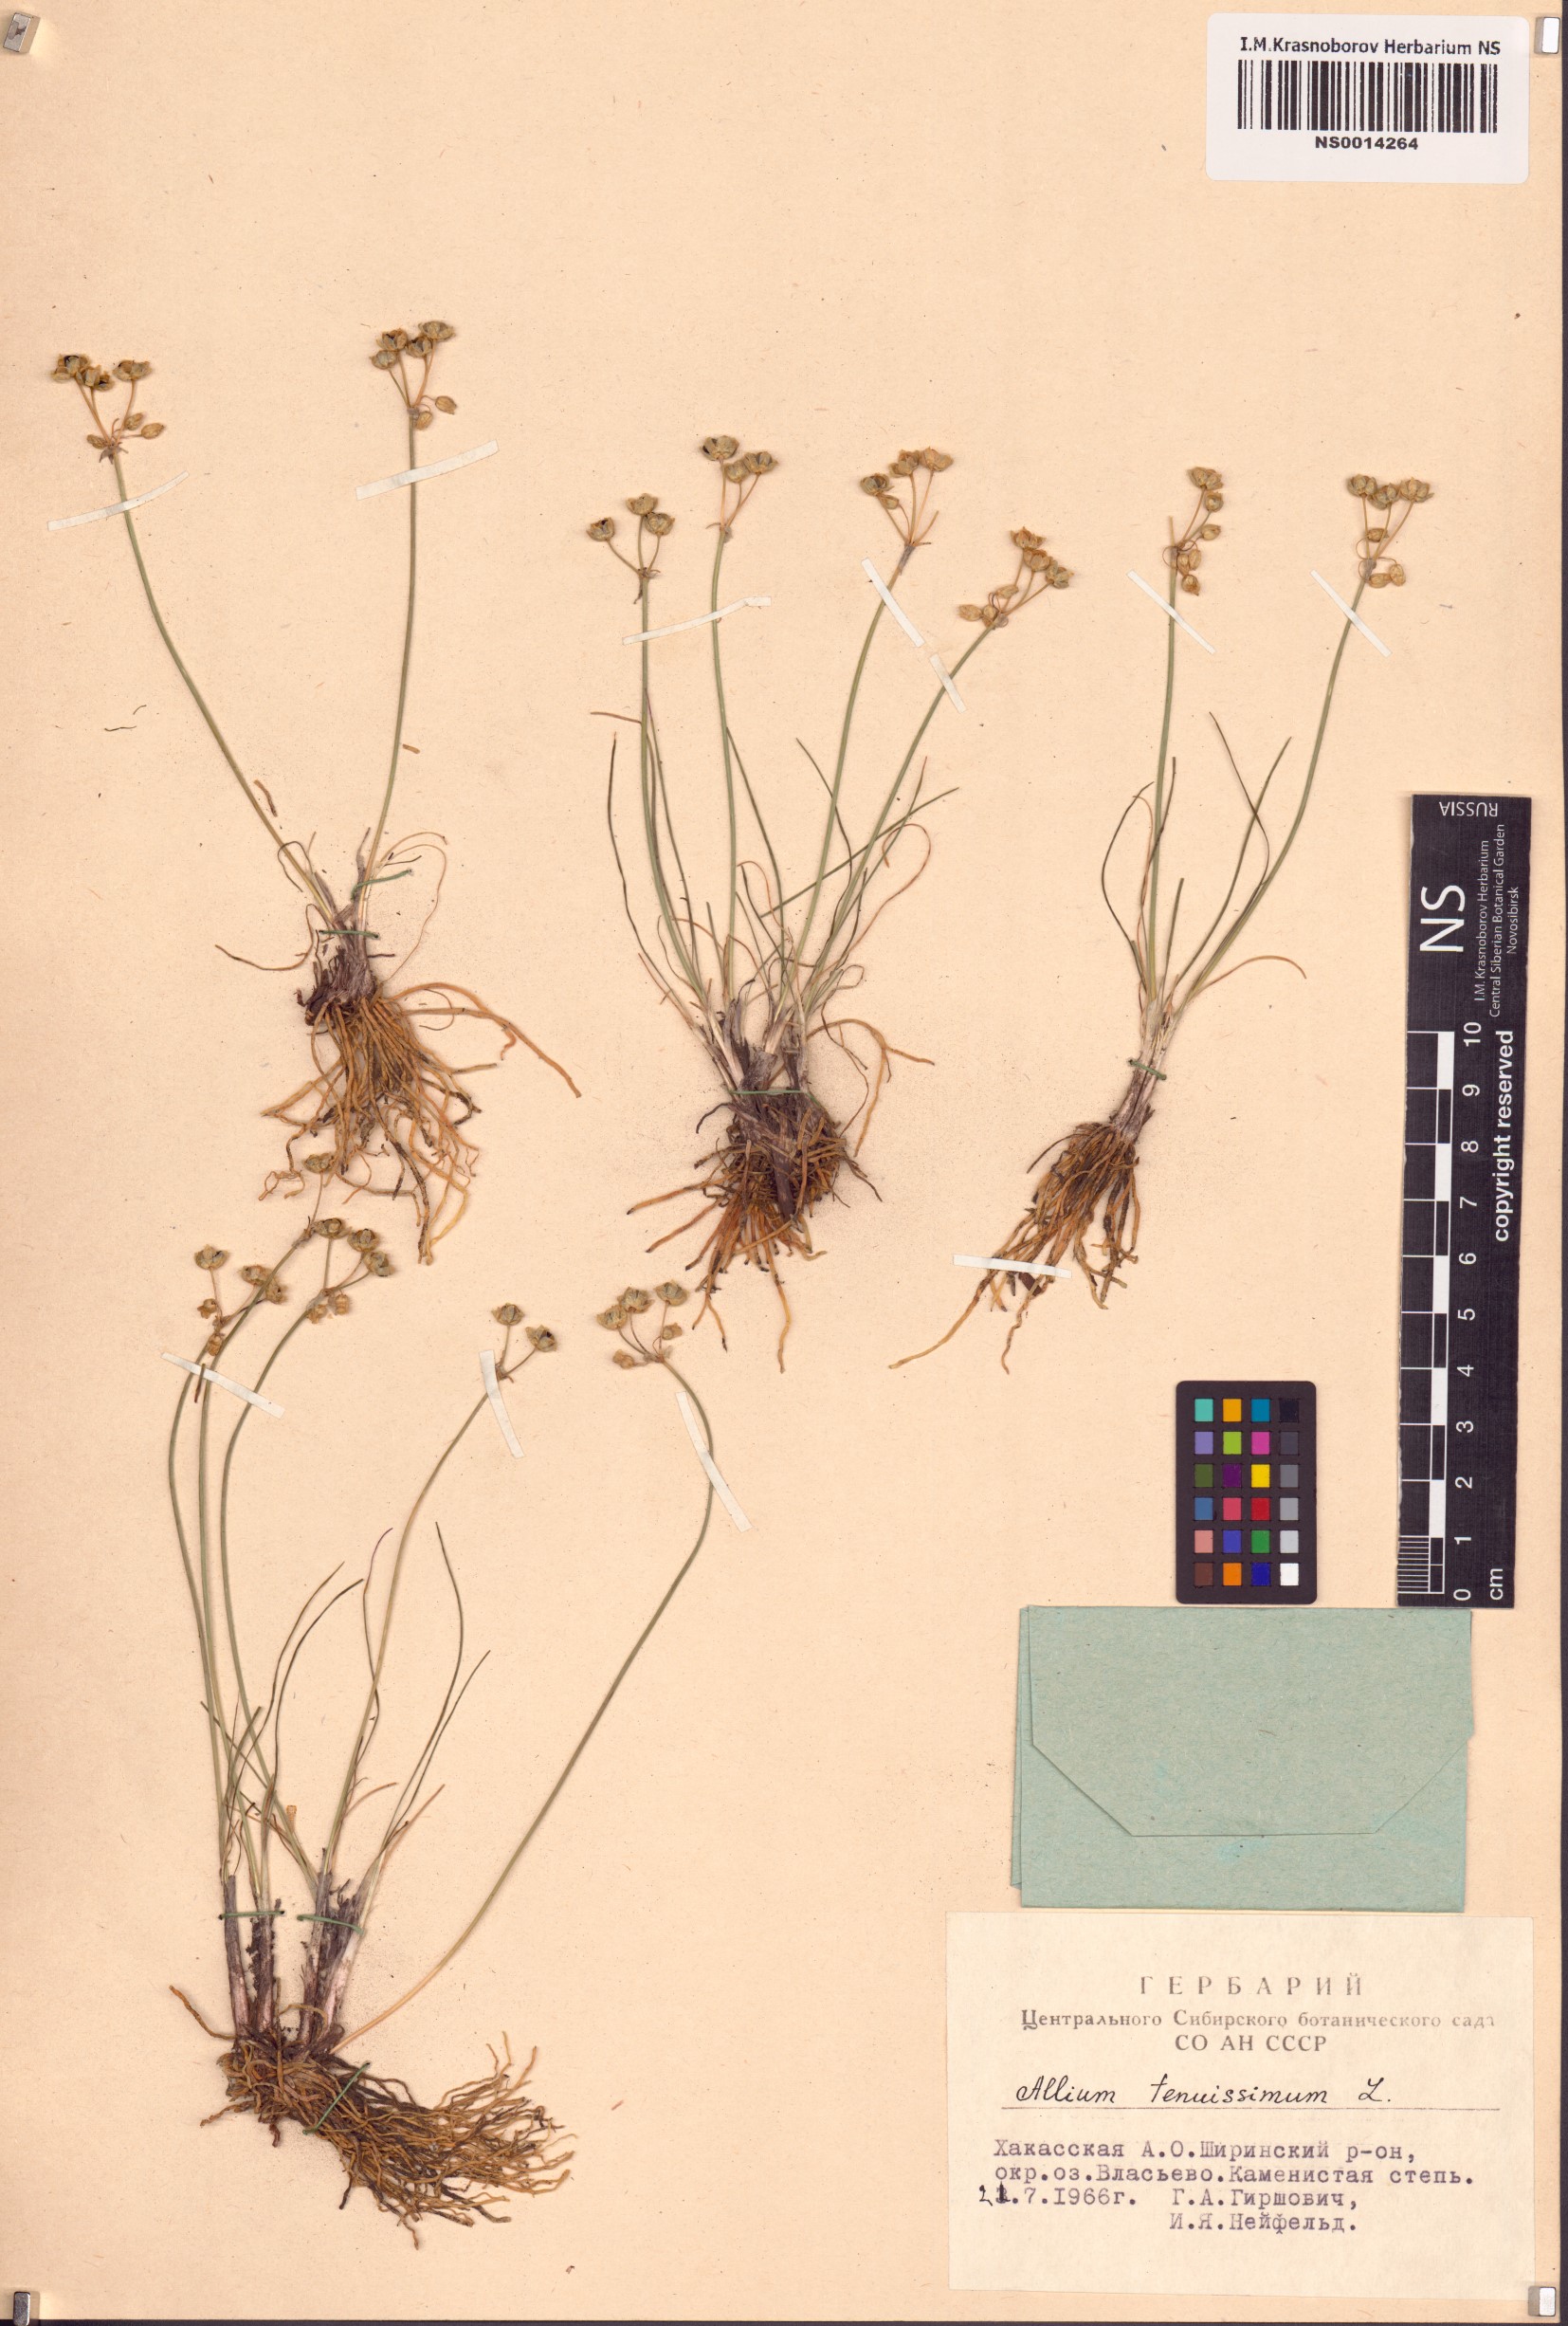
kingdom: Plantae
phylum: Tracheophyta
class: Liliopsida
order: Asparagales
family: Amaryllidaceae
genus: Allium
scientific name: Allium tenuissimum
